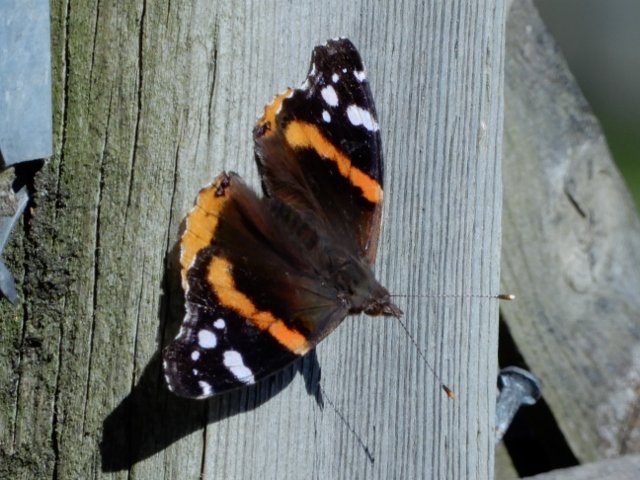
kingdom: Animalia
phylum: Arthropoda
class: Insecta
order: Lepidoptera
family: Nymphalidae
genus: Vanessa
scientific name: Vanessa atalanta
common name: Red Admiral
